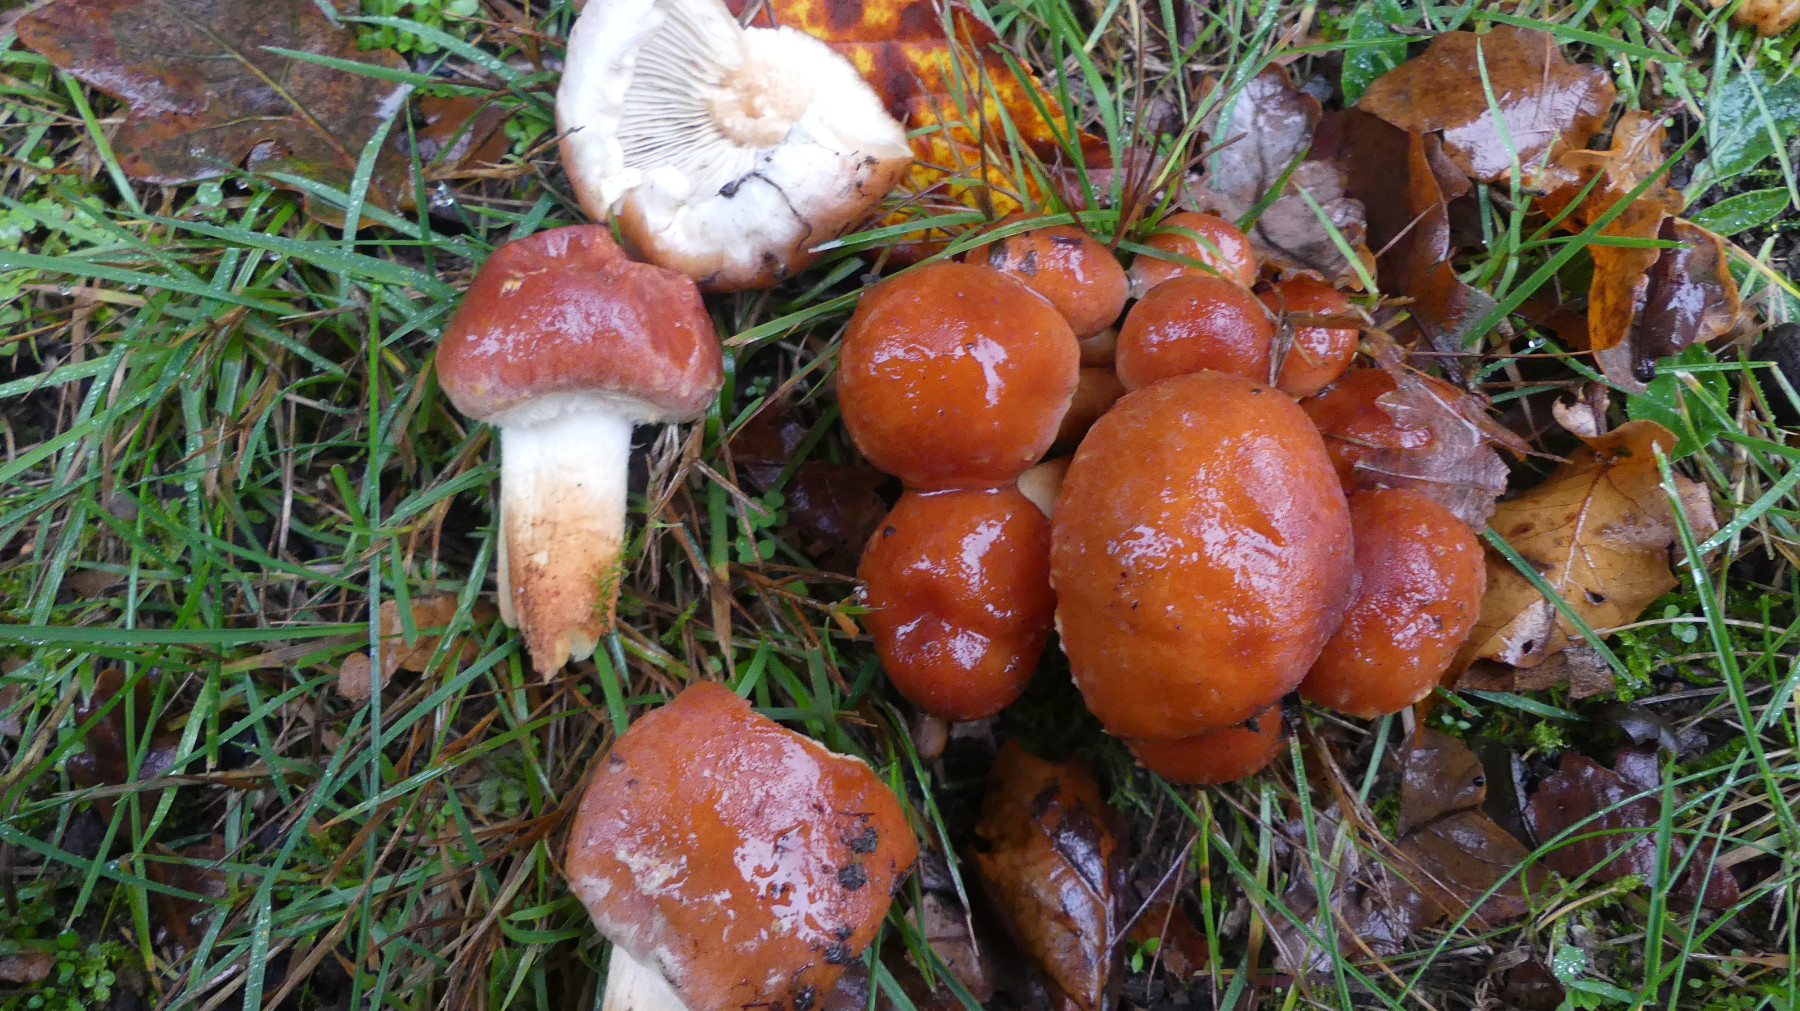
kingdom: Fungi
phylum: Basidiomycota
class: Agaricomycetes
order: Agaricales
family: Strophariaceae
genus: Hypholoma
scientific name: Hypholoma lateritium
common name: teglrød svovlhat
